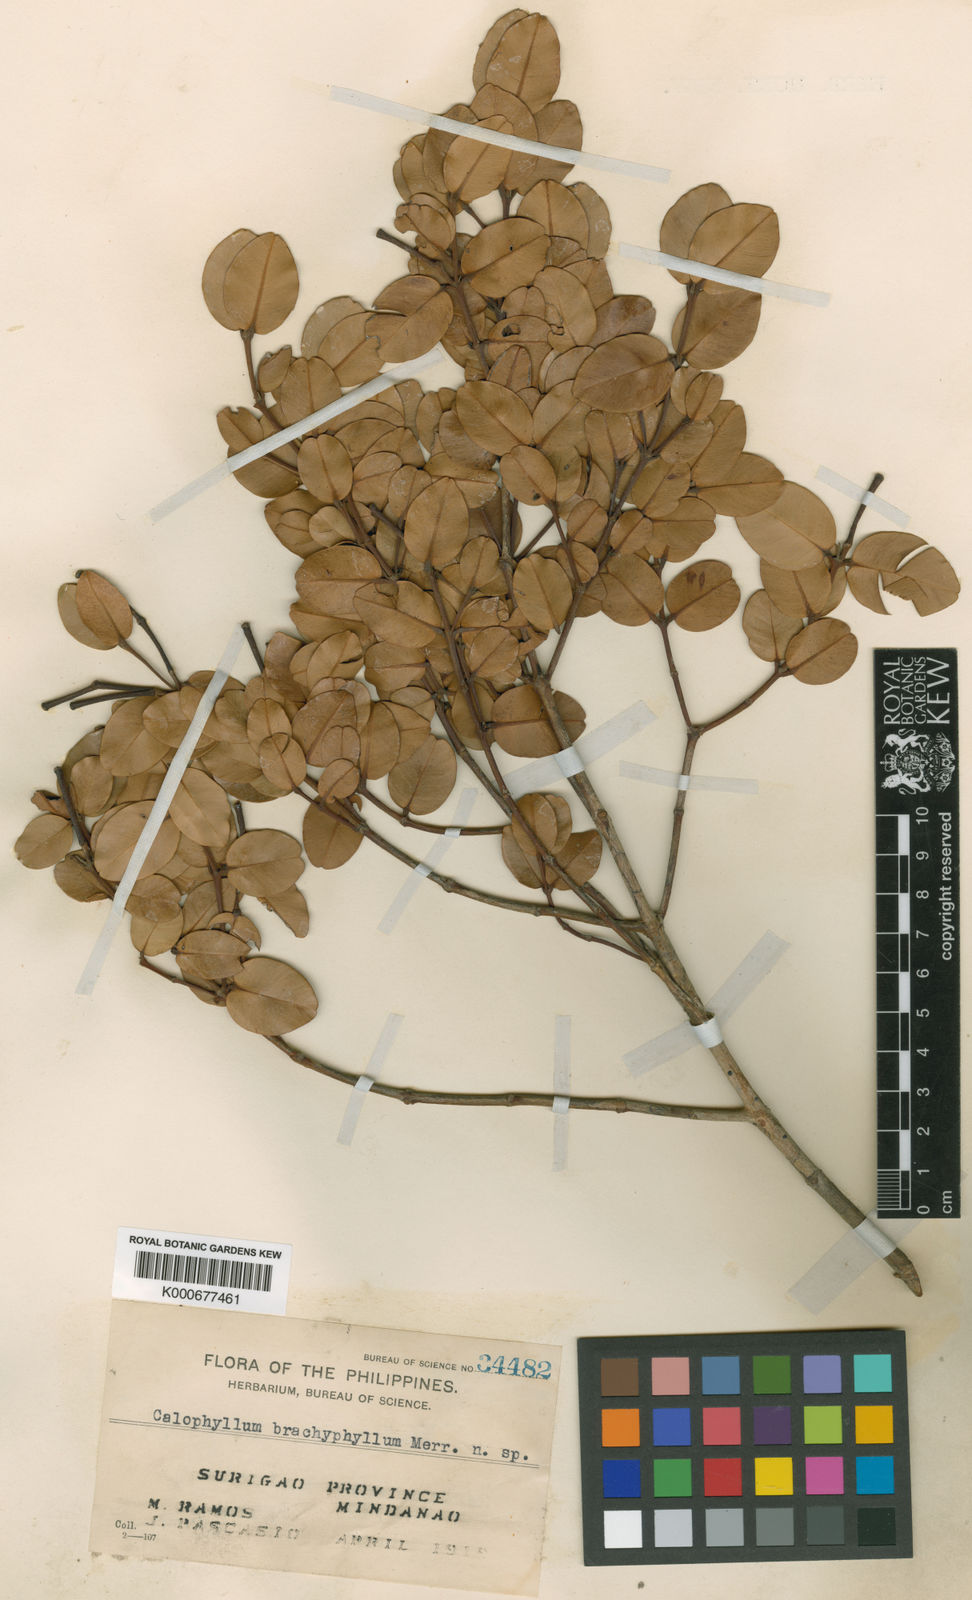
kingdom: Plantae
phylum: Tracheophyta
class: Magnoliopsida
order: Malpighiales
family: Calophyllaceae
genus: Calophyllum
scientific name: Calophyllum brachyphyllum
